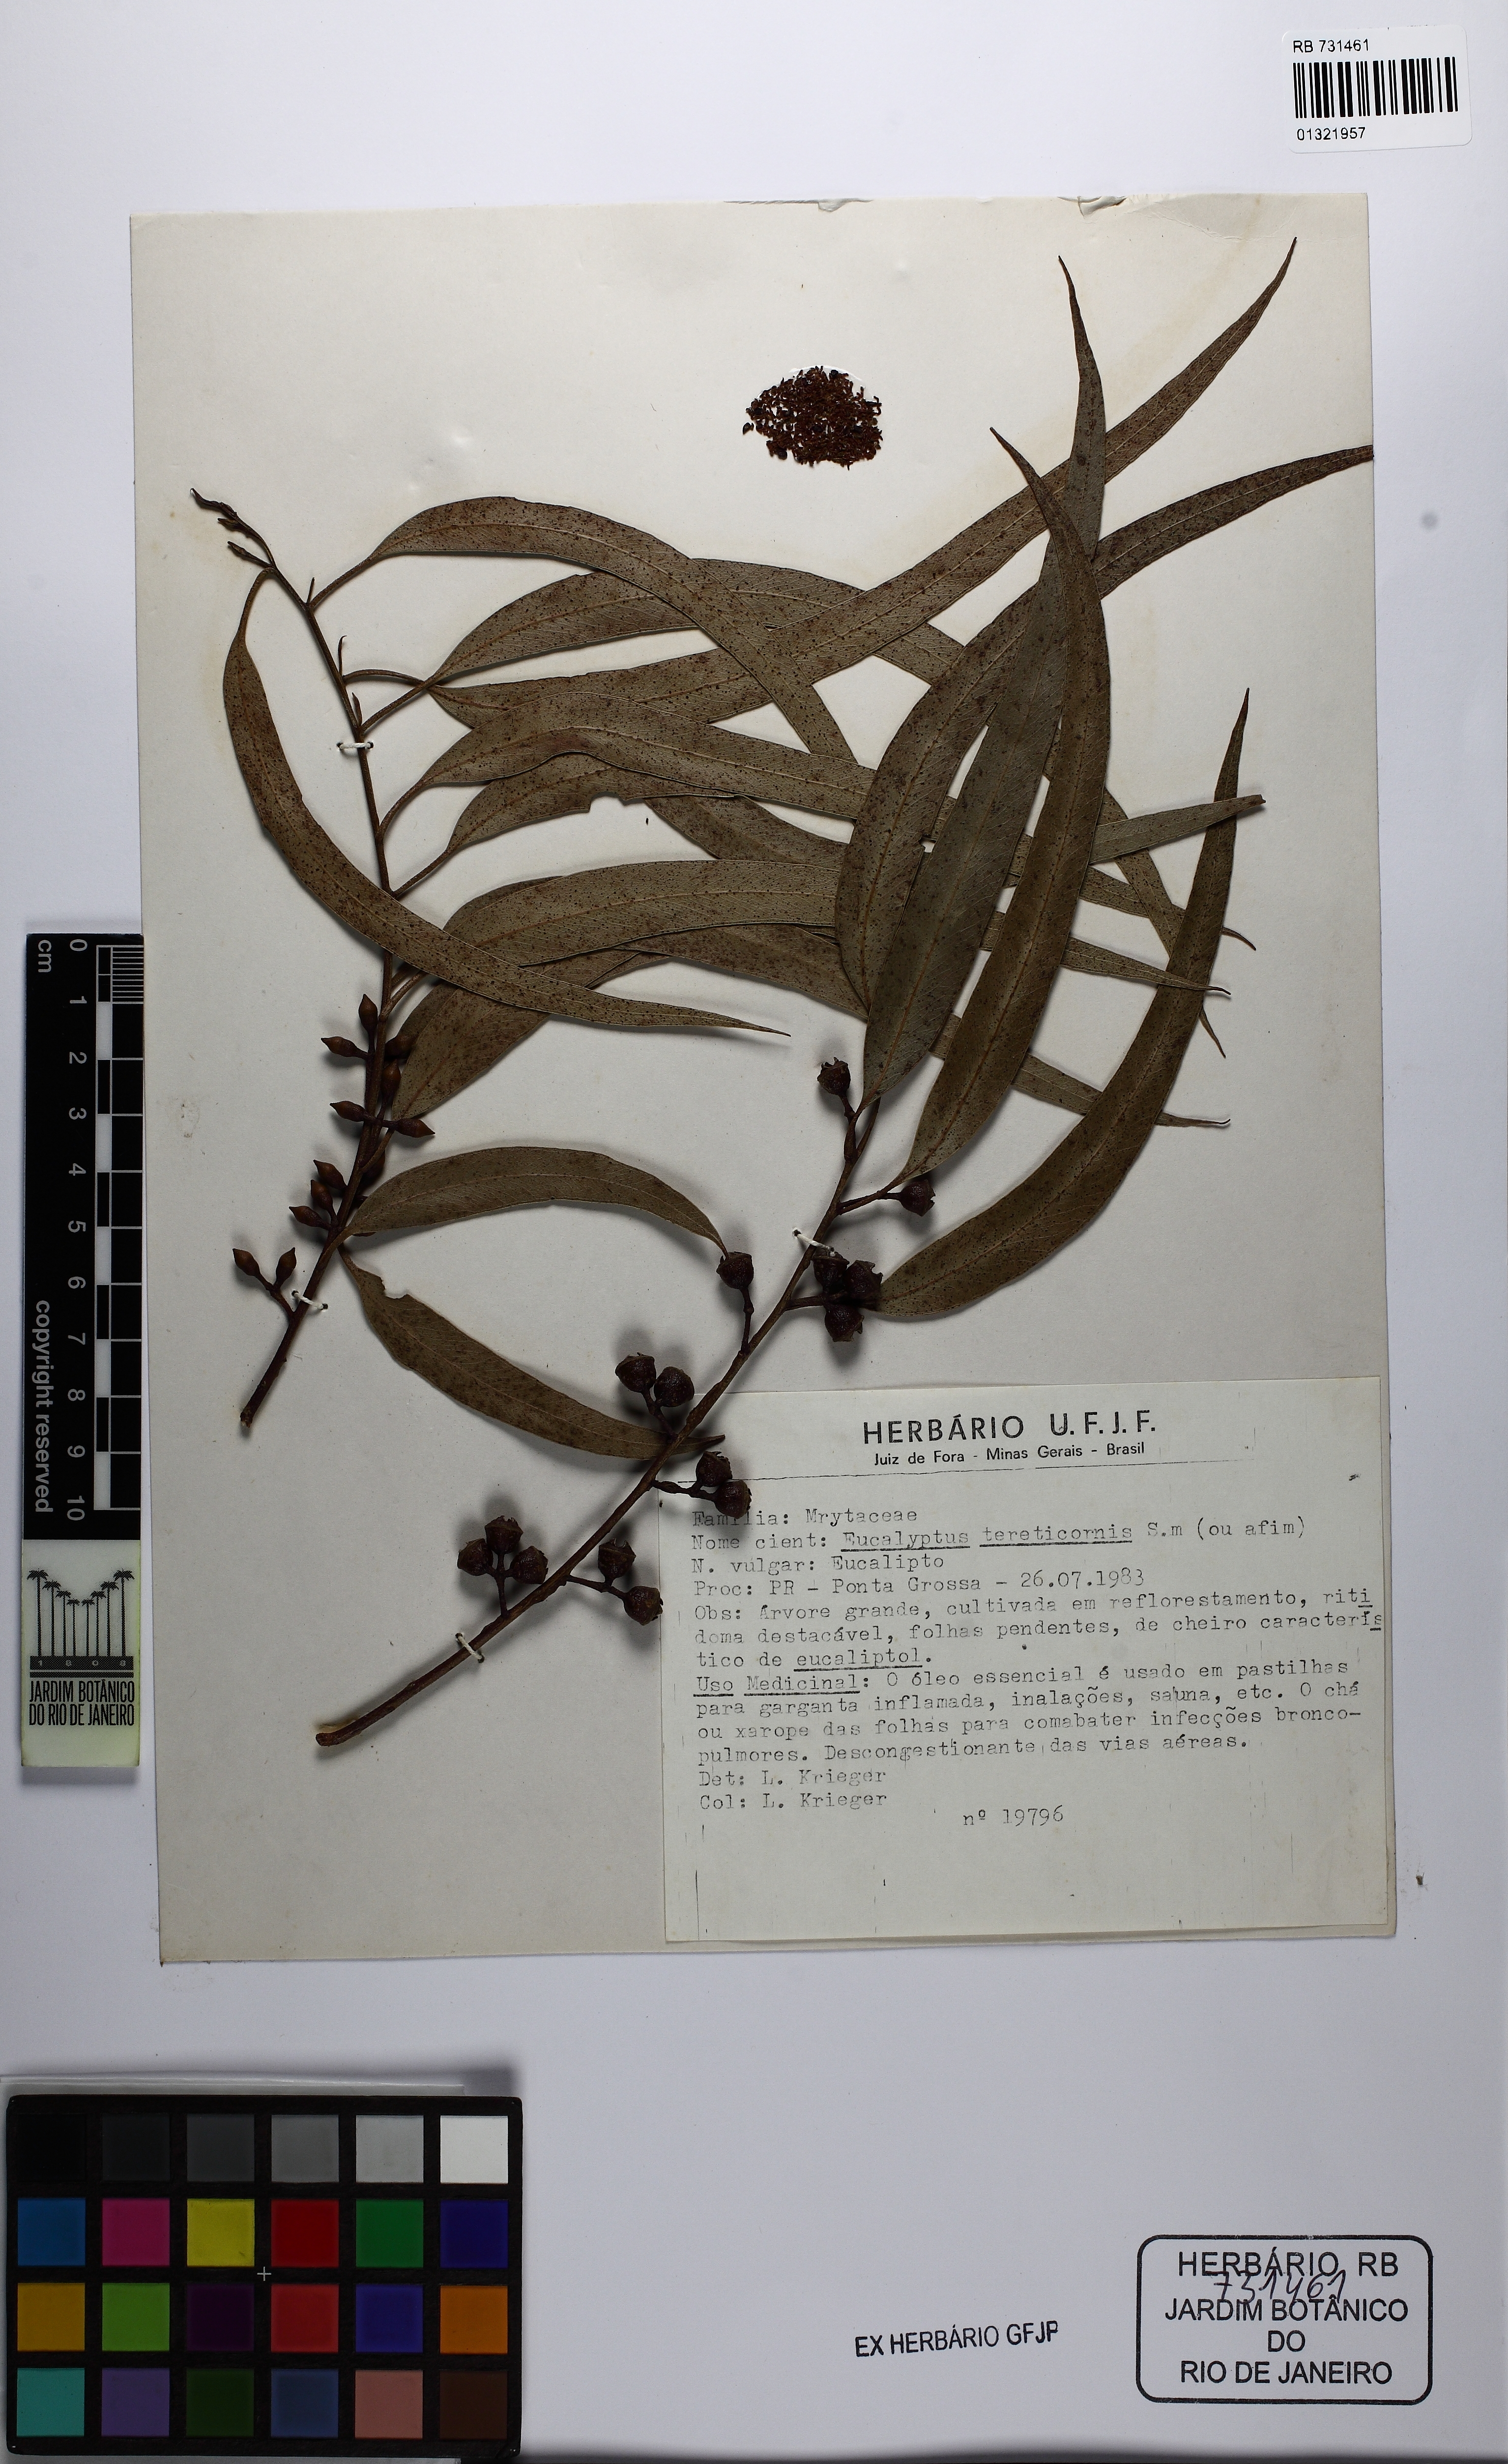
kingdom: Plantae
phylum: Tracheophyta
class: Magnoliopsida
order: Myrtales
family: Myrtaceae
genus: Eucalyptus
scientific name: Eucalyptus tereticornis
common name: Forest redgum
